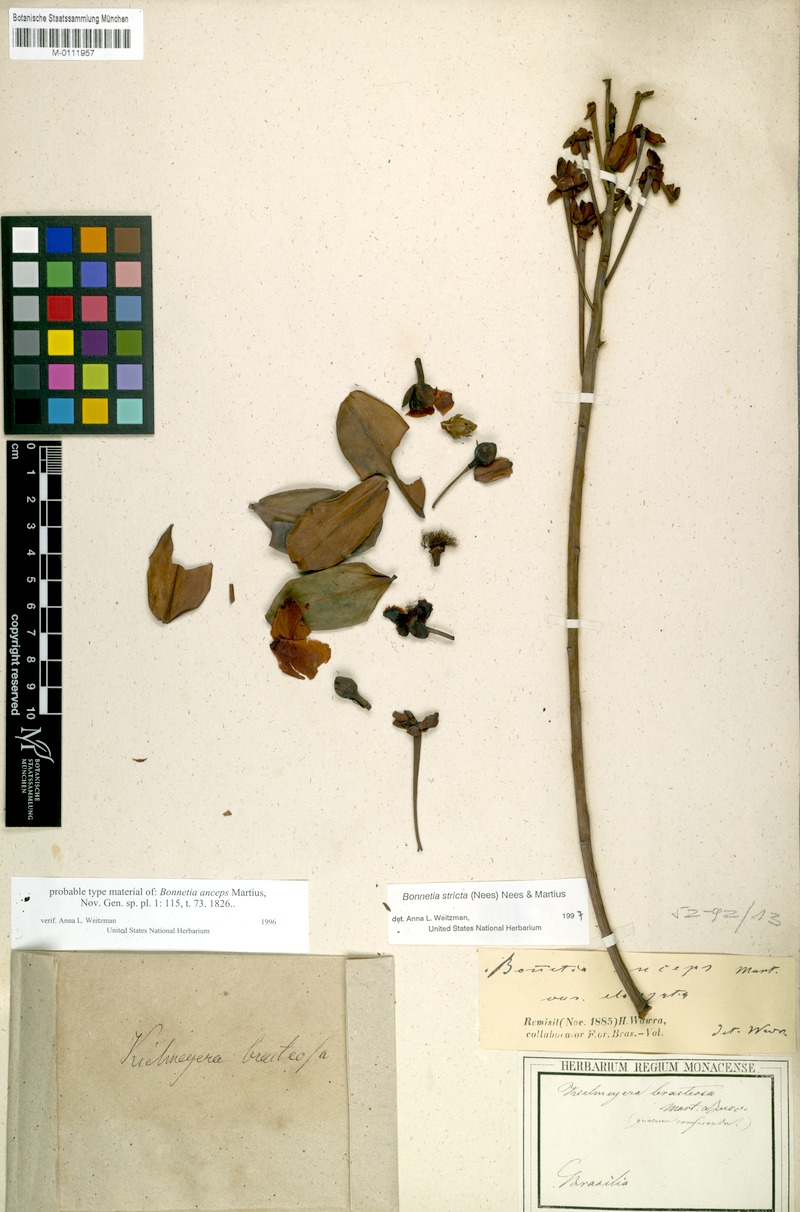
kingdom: Plantae
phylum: Tracheophyta
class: Magnoliopsida
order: Malpighiales
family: Bonnetiaceae
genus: Bonnetia
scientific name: Bonnetia stricta
